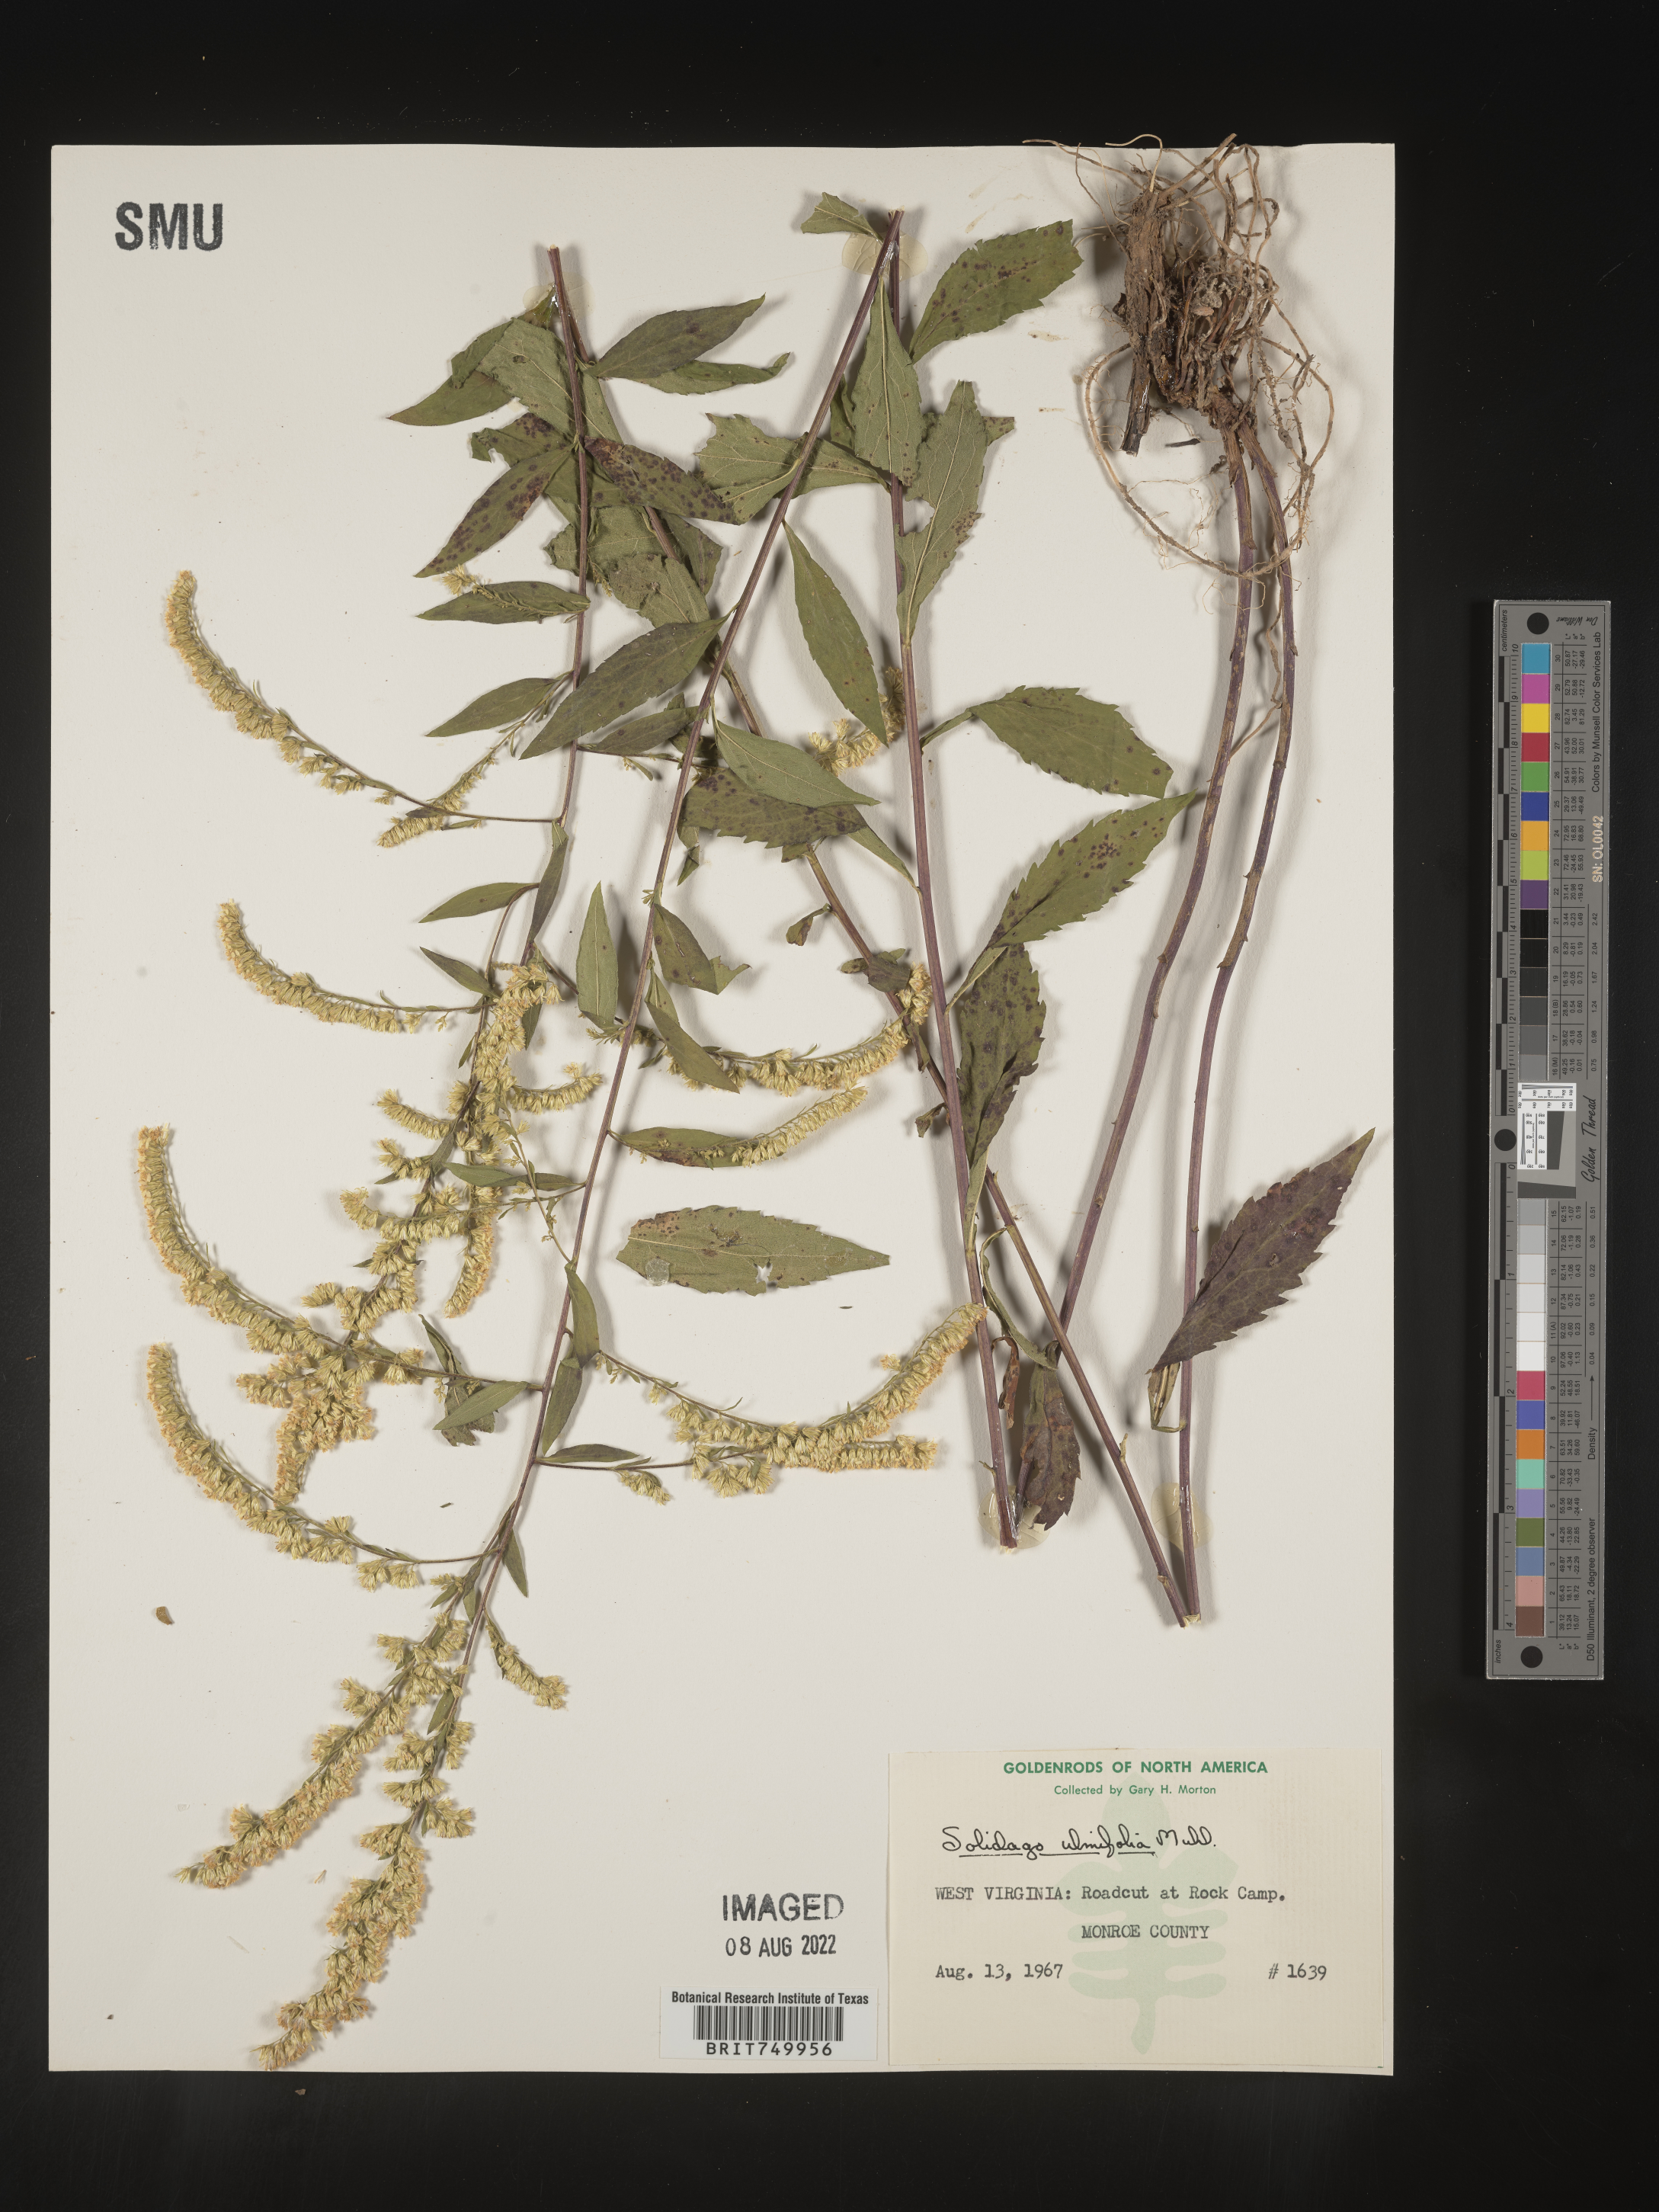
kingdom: Plantae
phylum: Tracheophyta
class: Magnoliopsida
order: Asterales
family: Asteraceae
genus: Solidago
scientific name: Solidago ulmifolia
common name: Elm-leaf goldenrod
